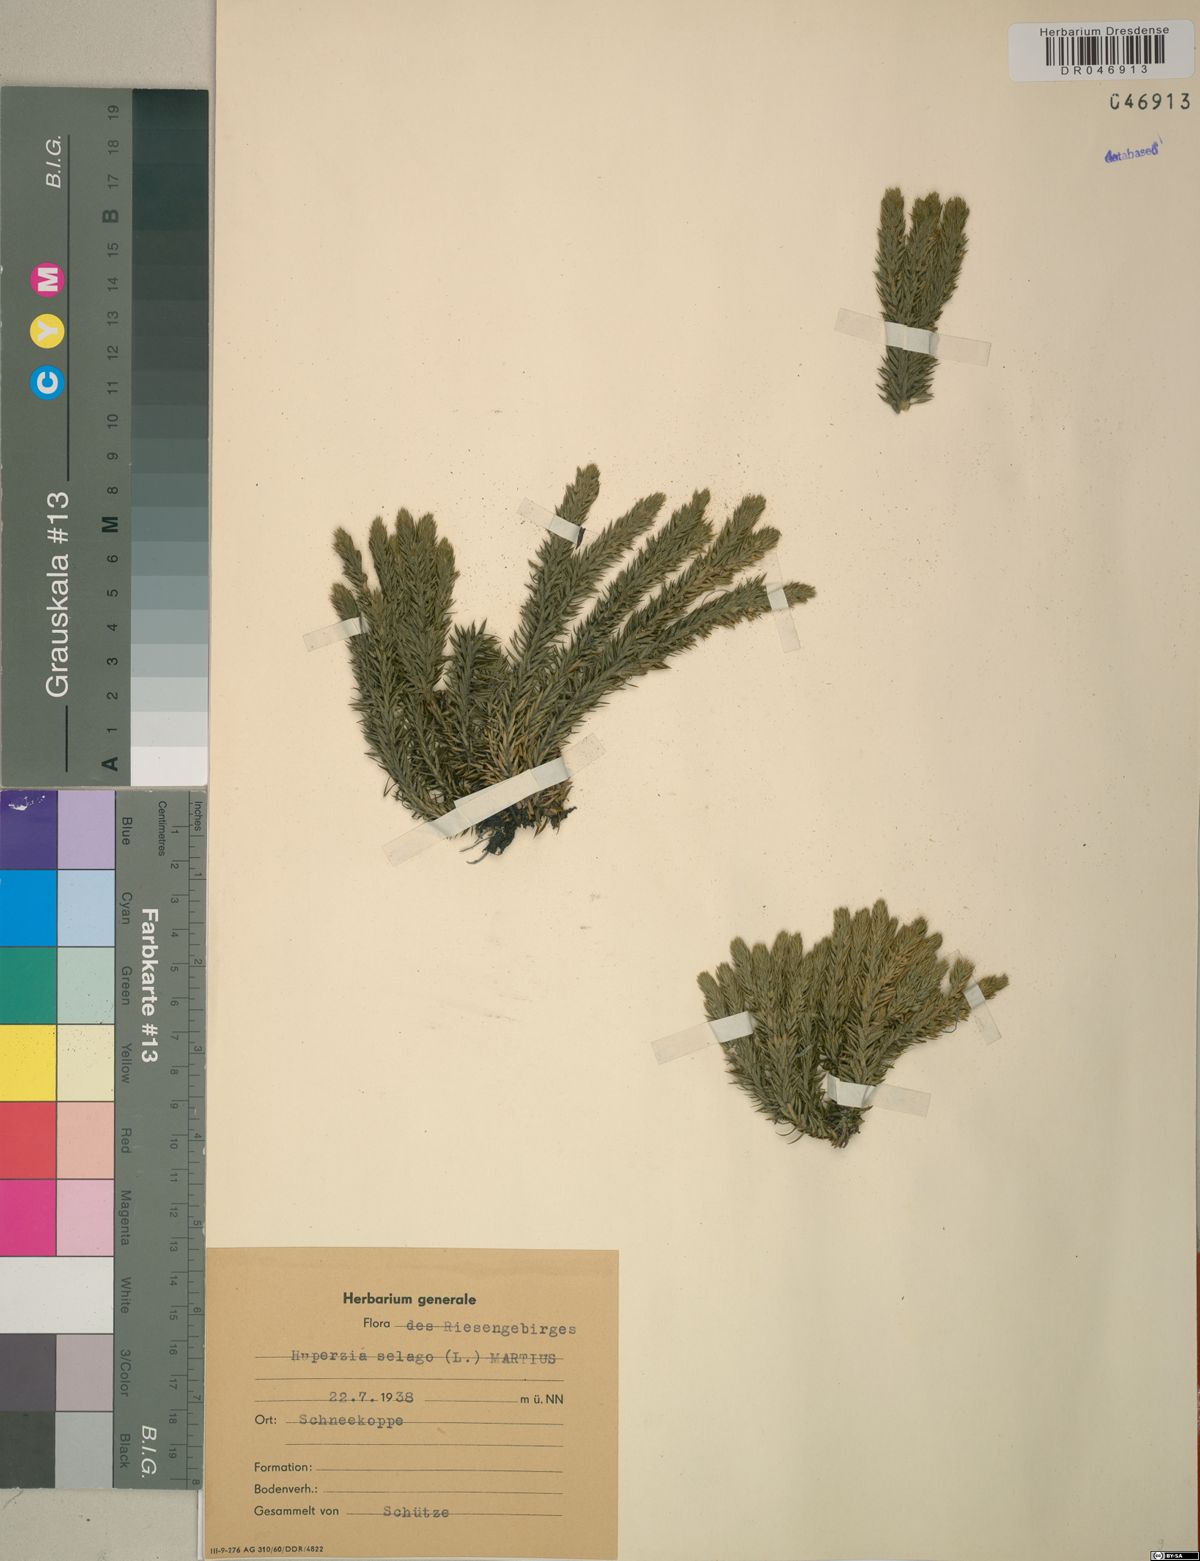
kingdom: Plantae
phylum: Tracheophyta
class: Lycopodiopsida
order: Lycopodiales
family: Lycopodiaceae
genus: Huperzia
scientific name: Huperzia selago
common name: Northern firmoss
